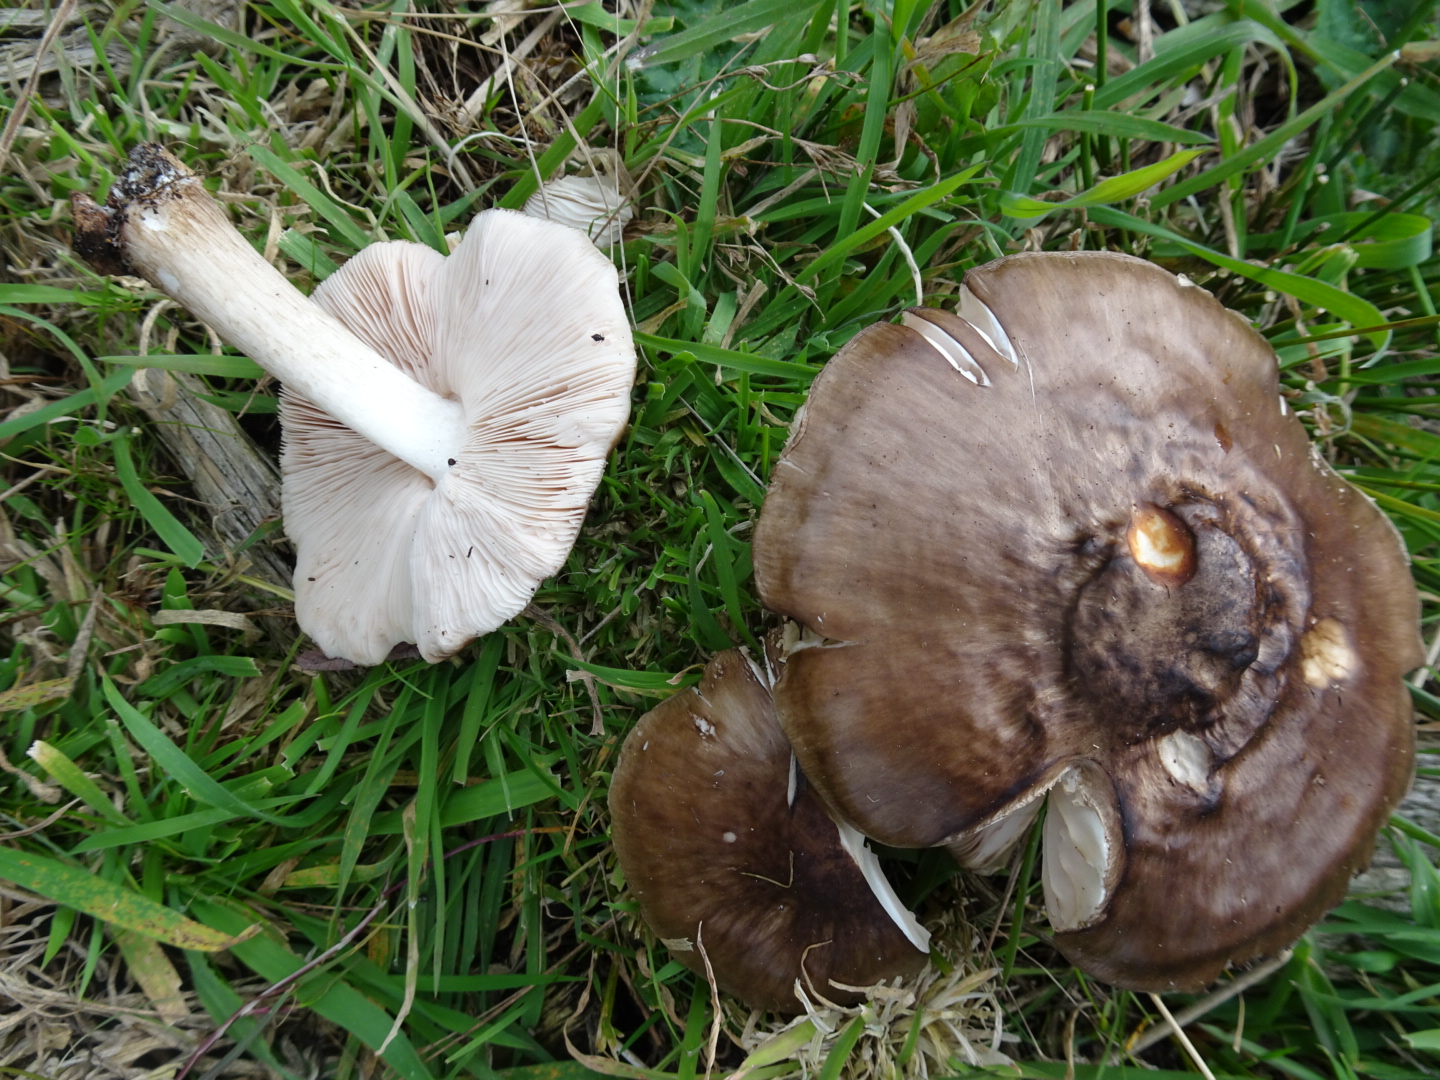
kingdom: Fungi
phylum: Basidiomycota
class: Agaricomycetes
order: Agaricales
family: Pluteaceae
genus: Pluteus
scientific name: Pluteus cervinus
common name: sodfarvet skærmhat
